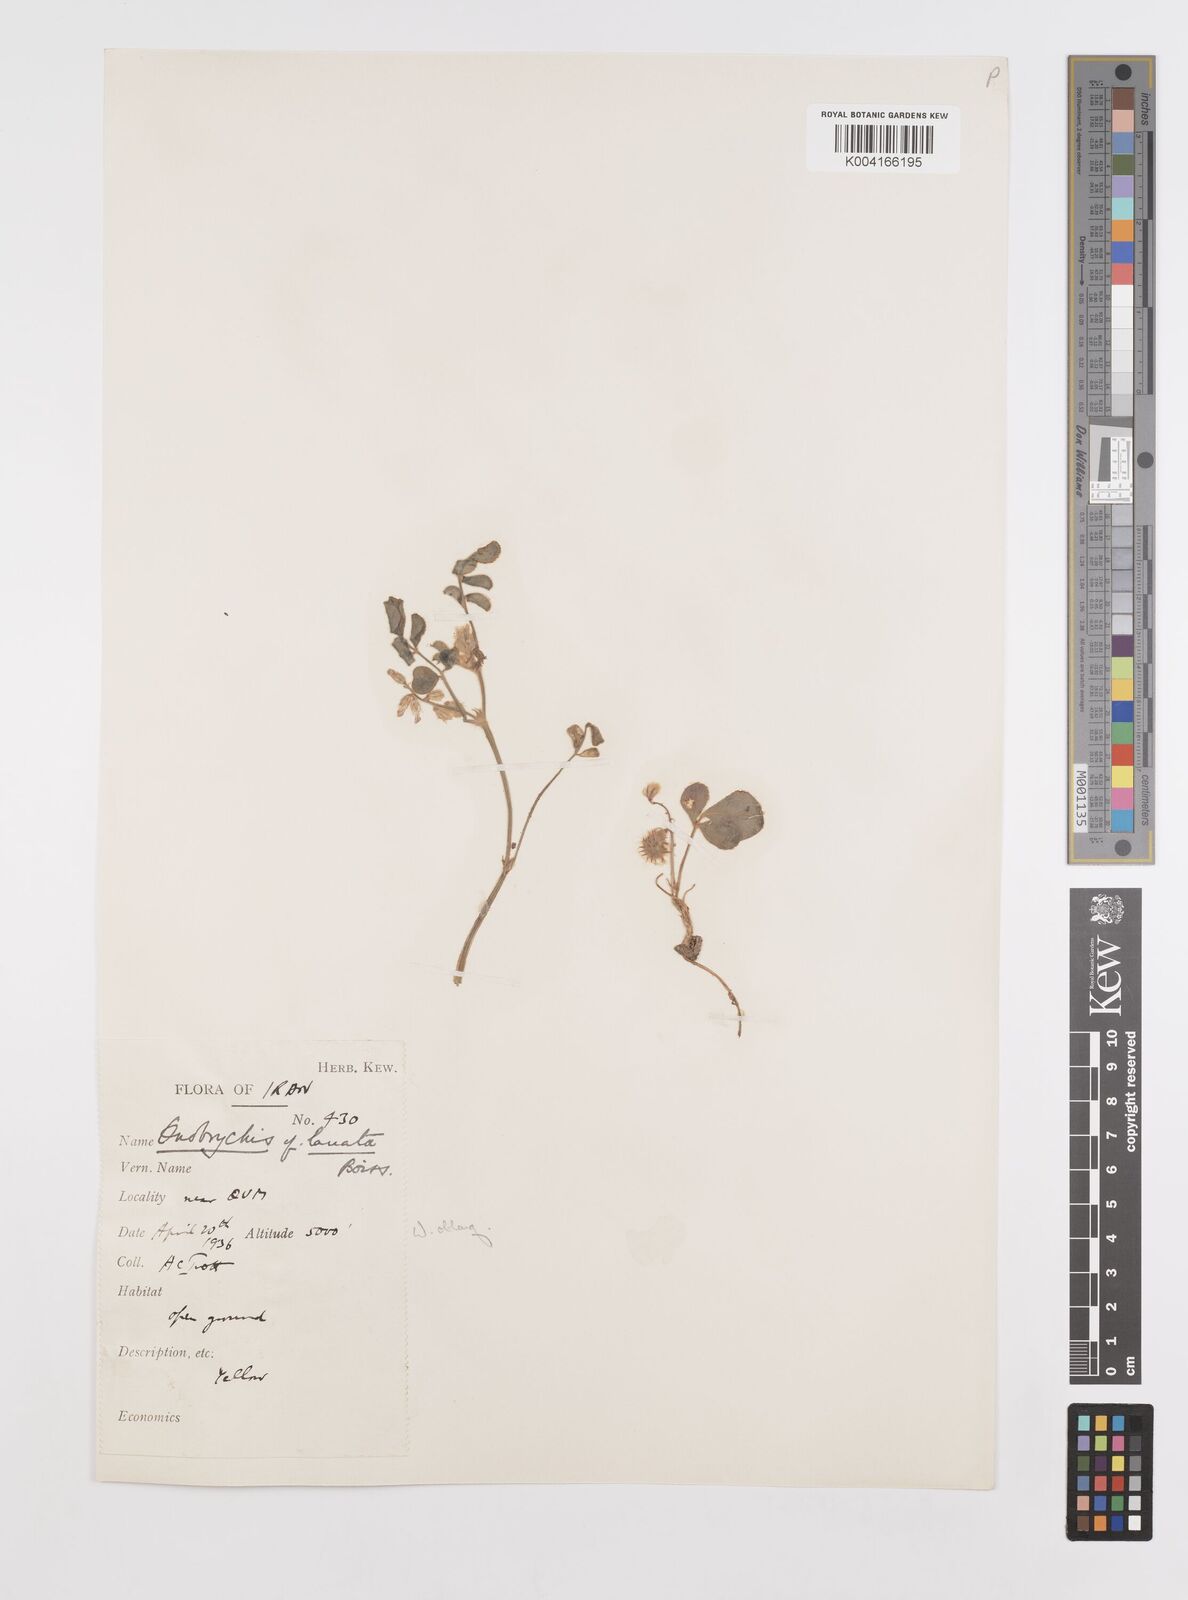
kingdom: Plantae
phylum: Tracheophyta
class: Magnoliopsida
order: Fabales
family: Fabaceae
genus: Onobrychis
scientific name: Onobrychis ptolemaica
